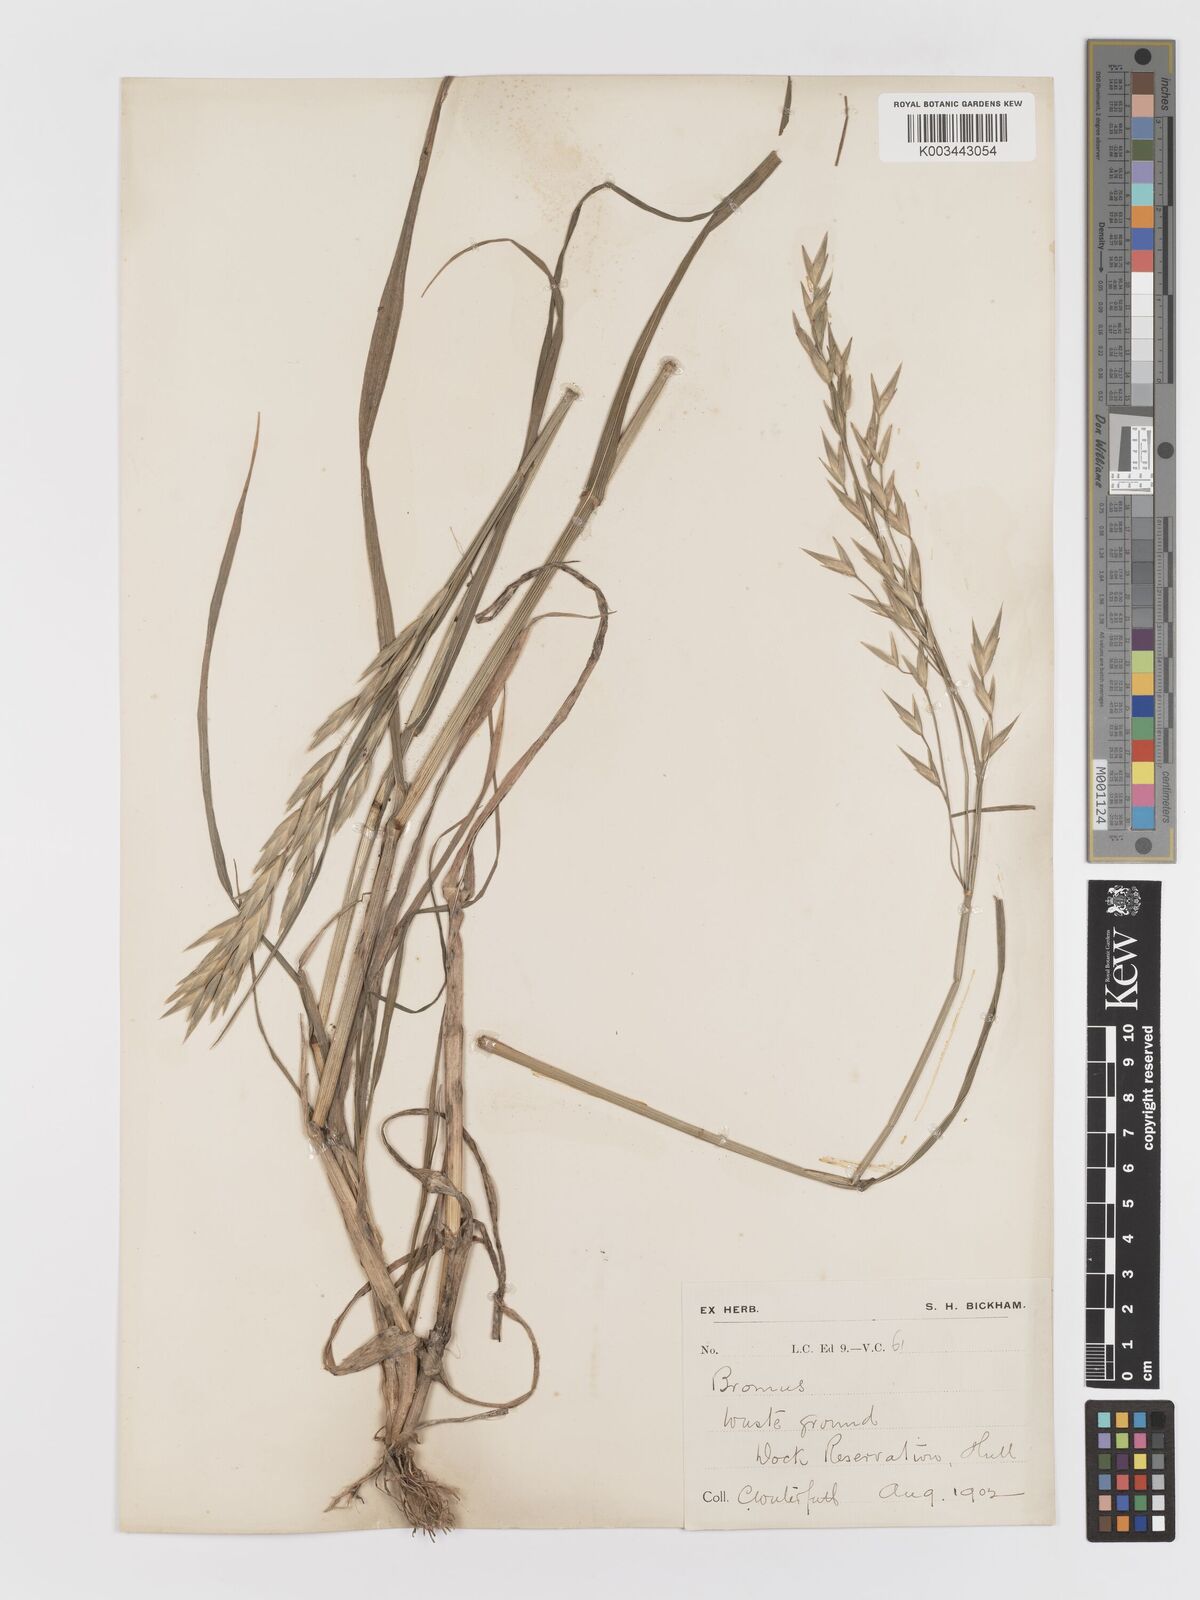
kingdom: Plantae
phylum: Tracheophyta
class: Liliopsida
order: Poales
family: Poaceae
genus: Bromus
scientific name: Bromus catharticus
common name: Rescuegrass
